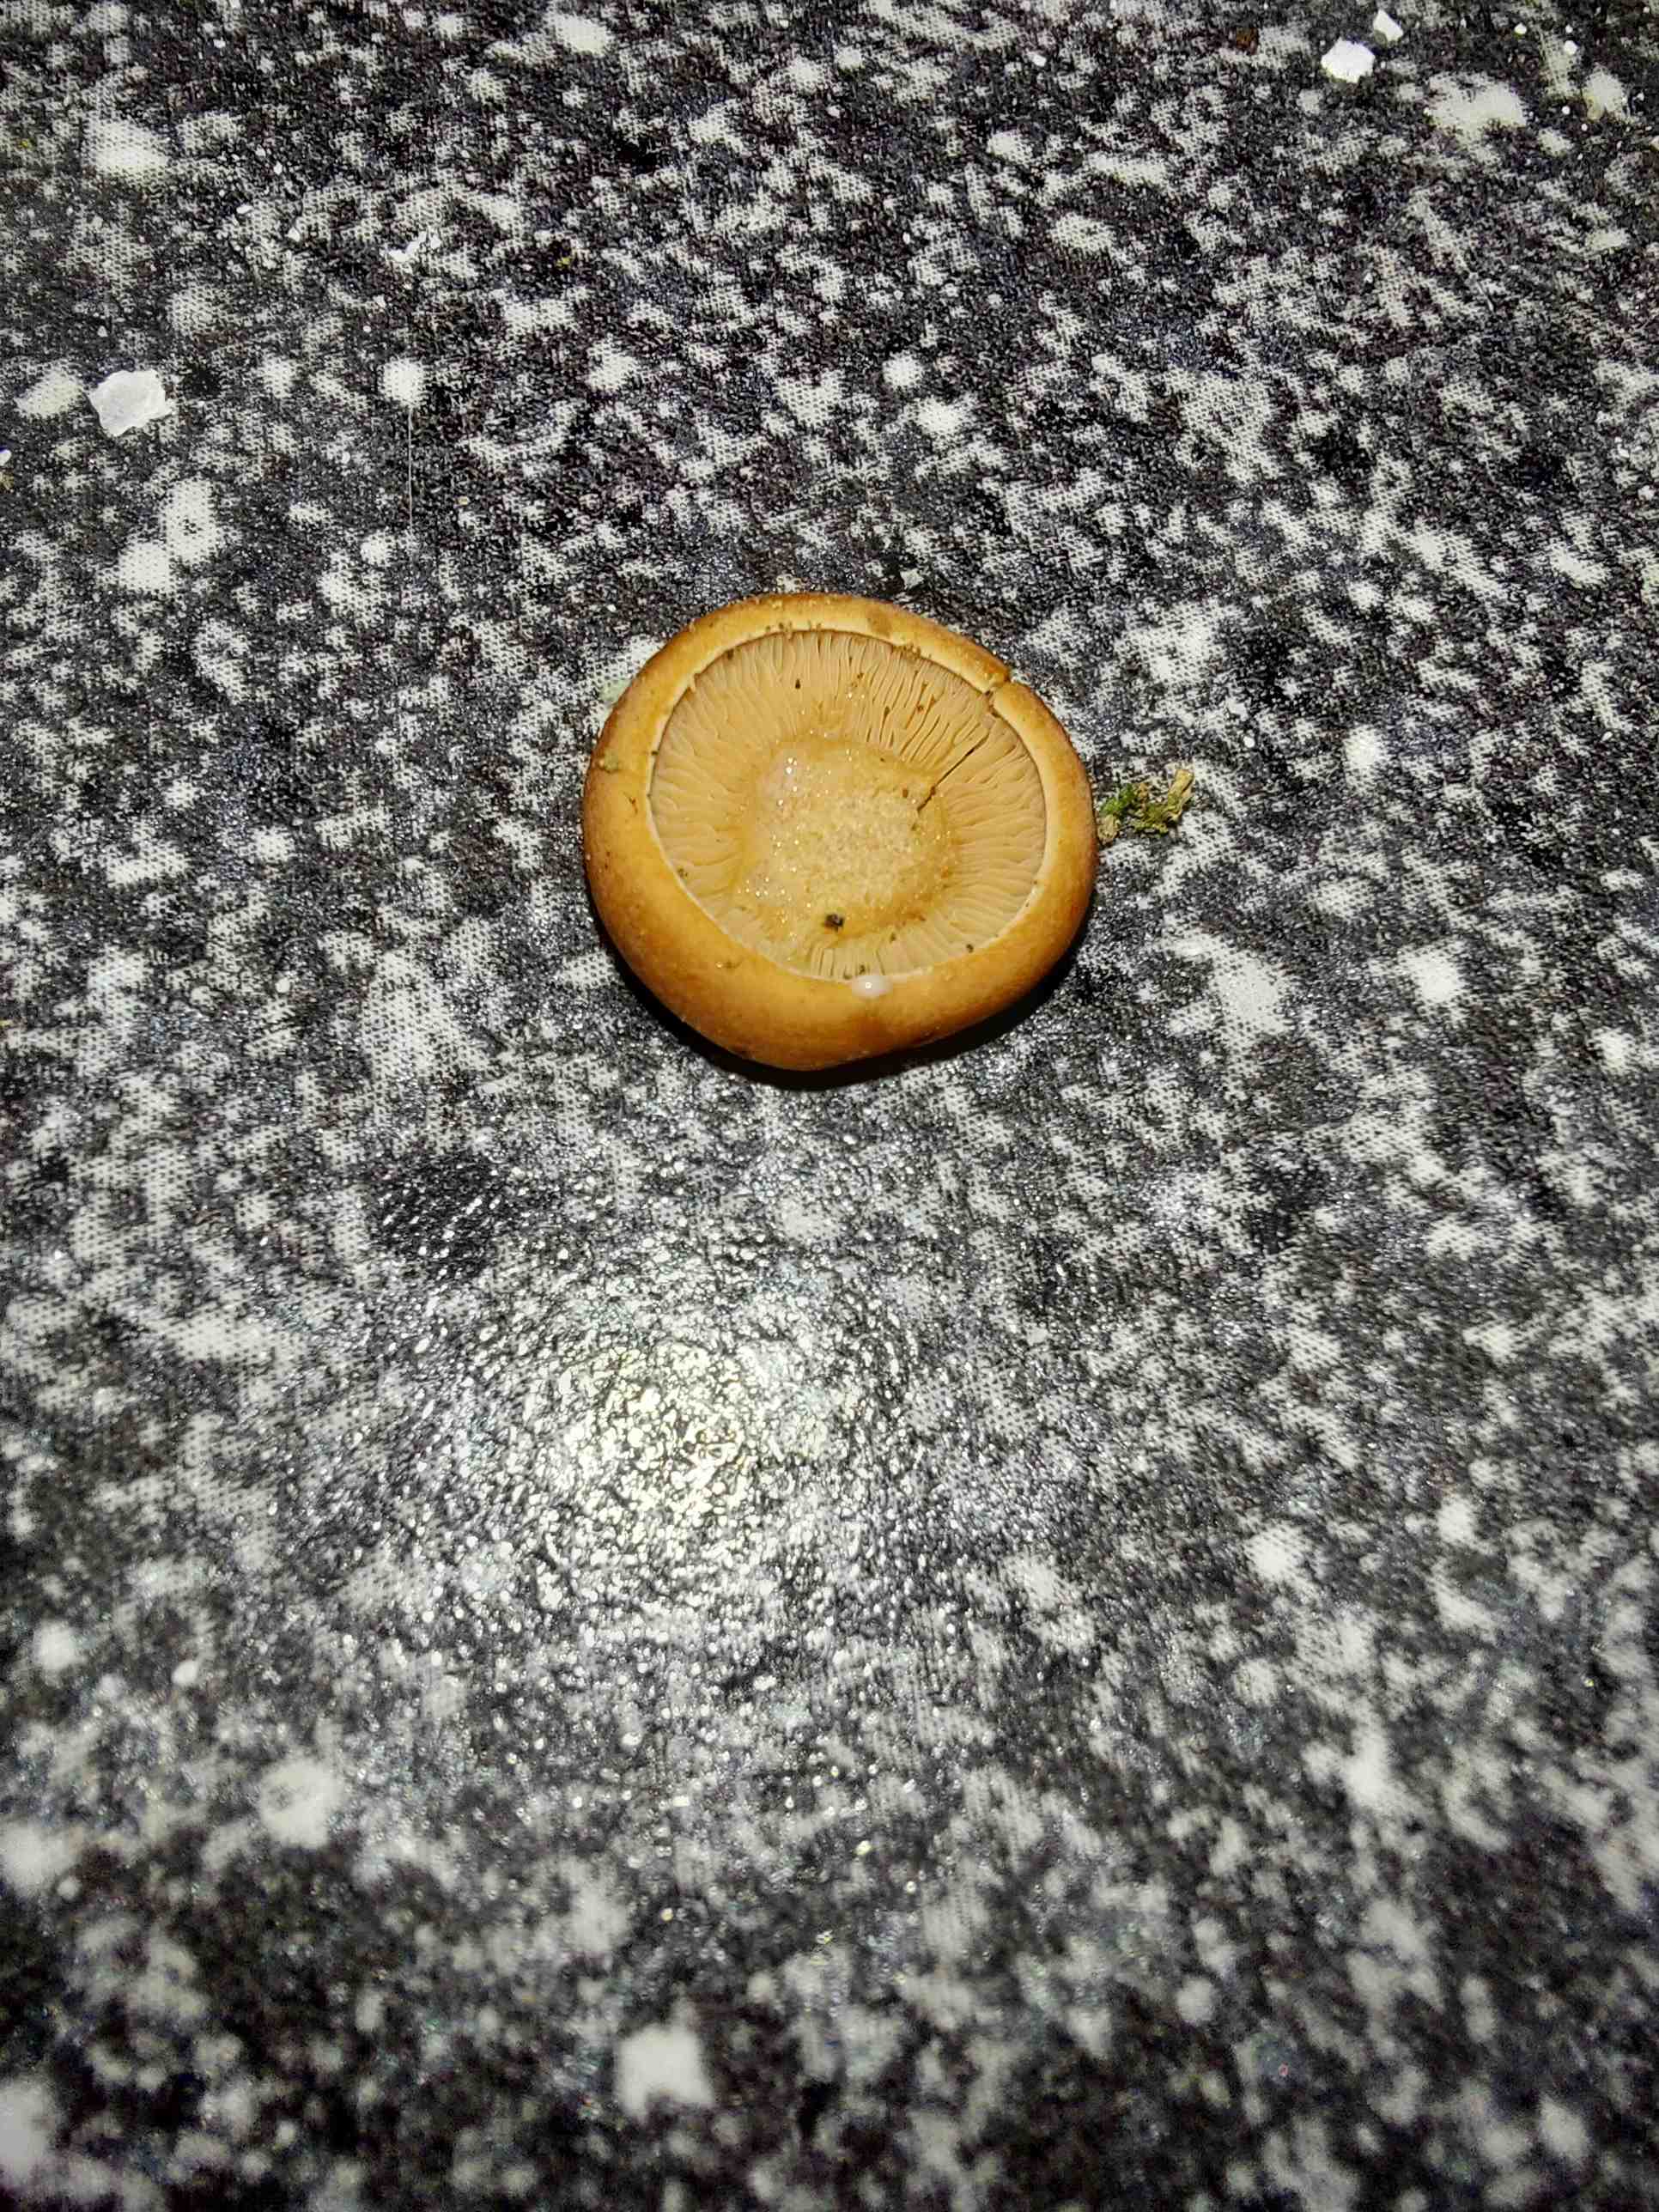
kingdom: Fungi
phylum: Basidiomycota
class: Agaricomycetes
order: Russulales
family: Russulaceae
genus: Lactarius
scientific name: Lactarius camphoratus
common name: kamfer-mælkehat
